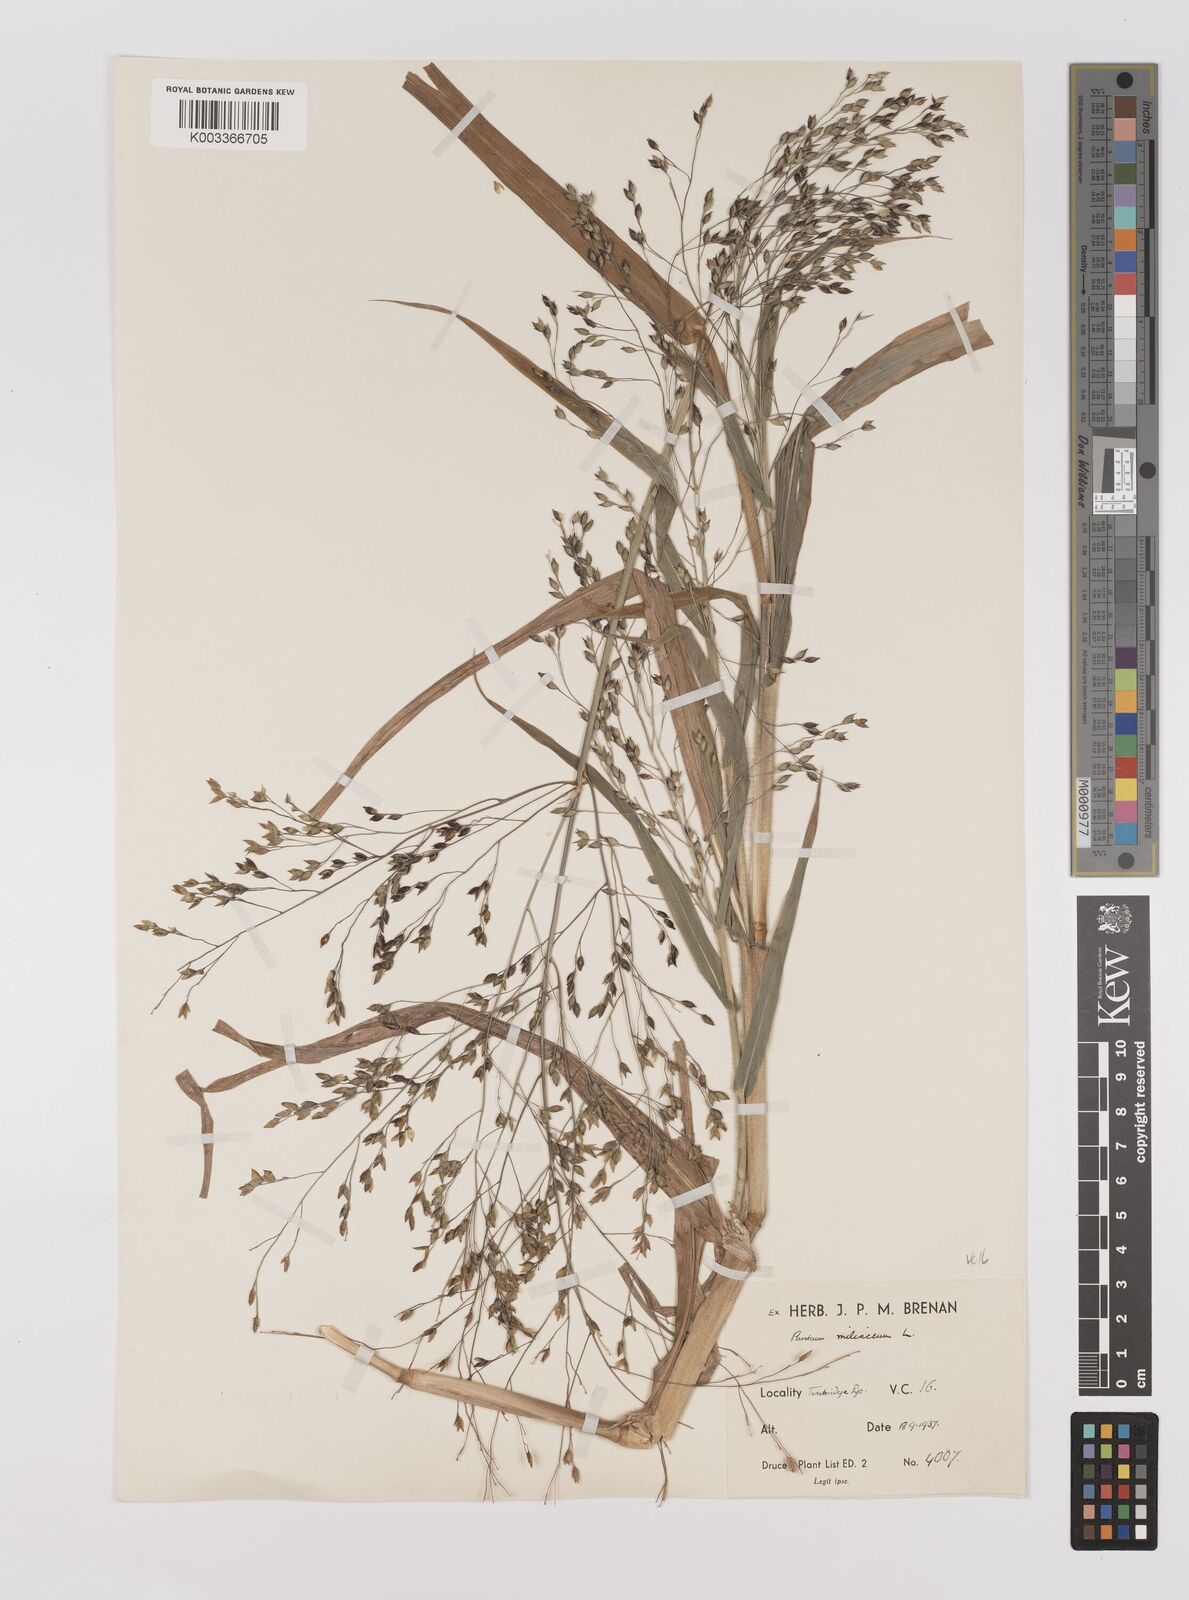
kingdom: Plantae
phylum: Tracheophyta
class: Liliopsida
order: Poales
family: Poaceae
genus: Panicum
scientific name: Panicum miliaceum
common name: Common millet
